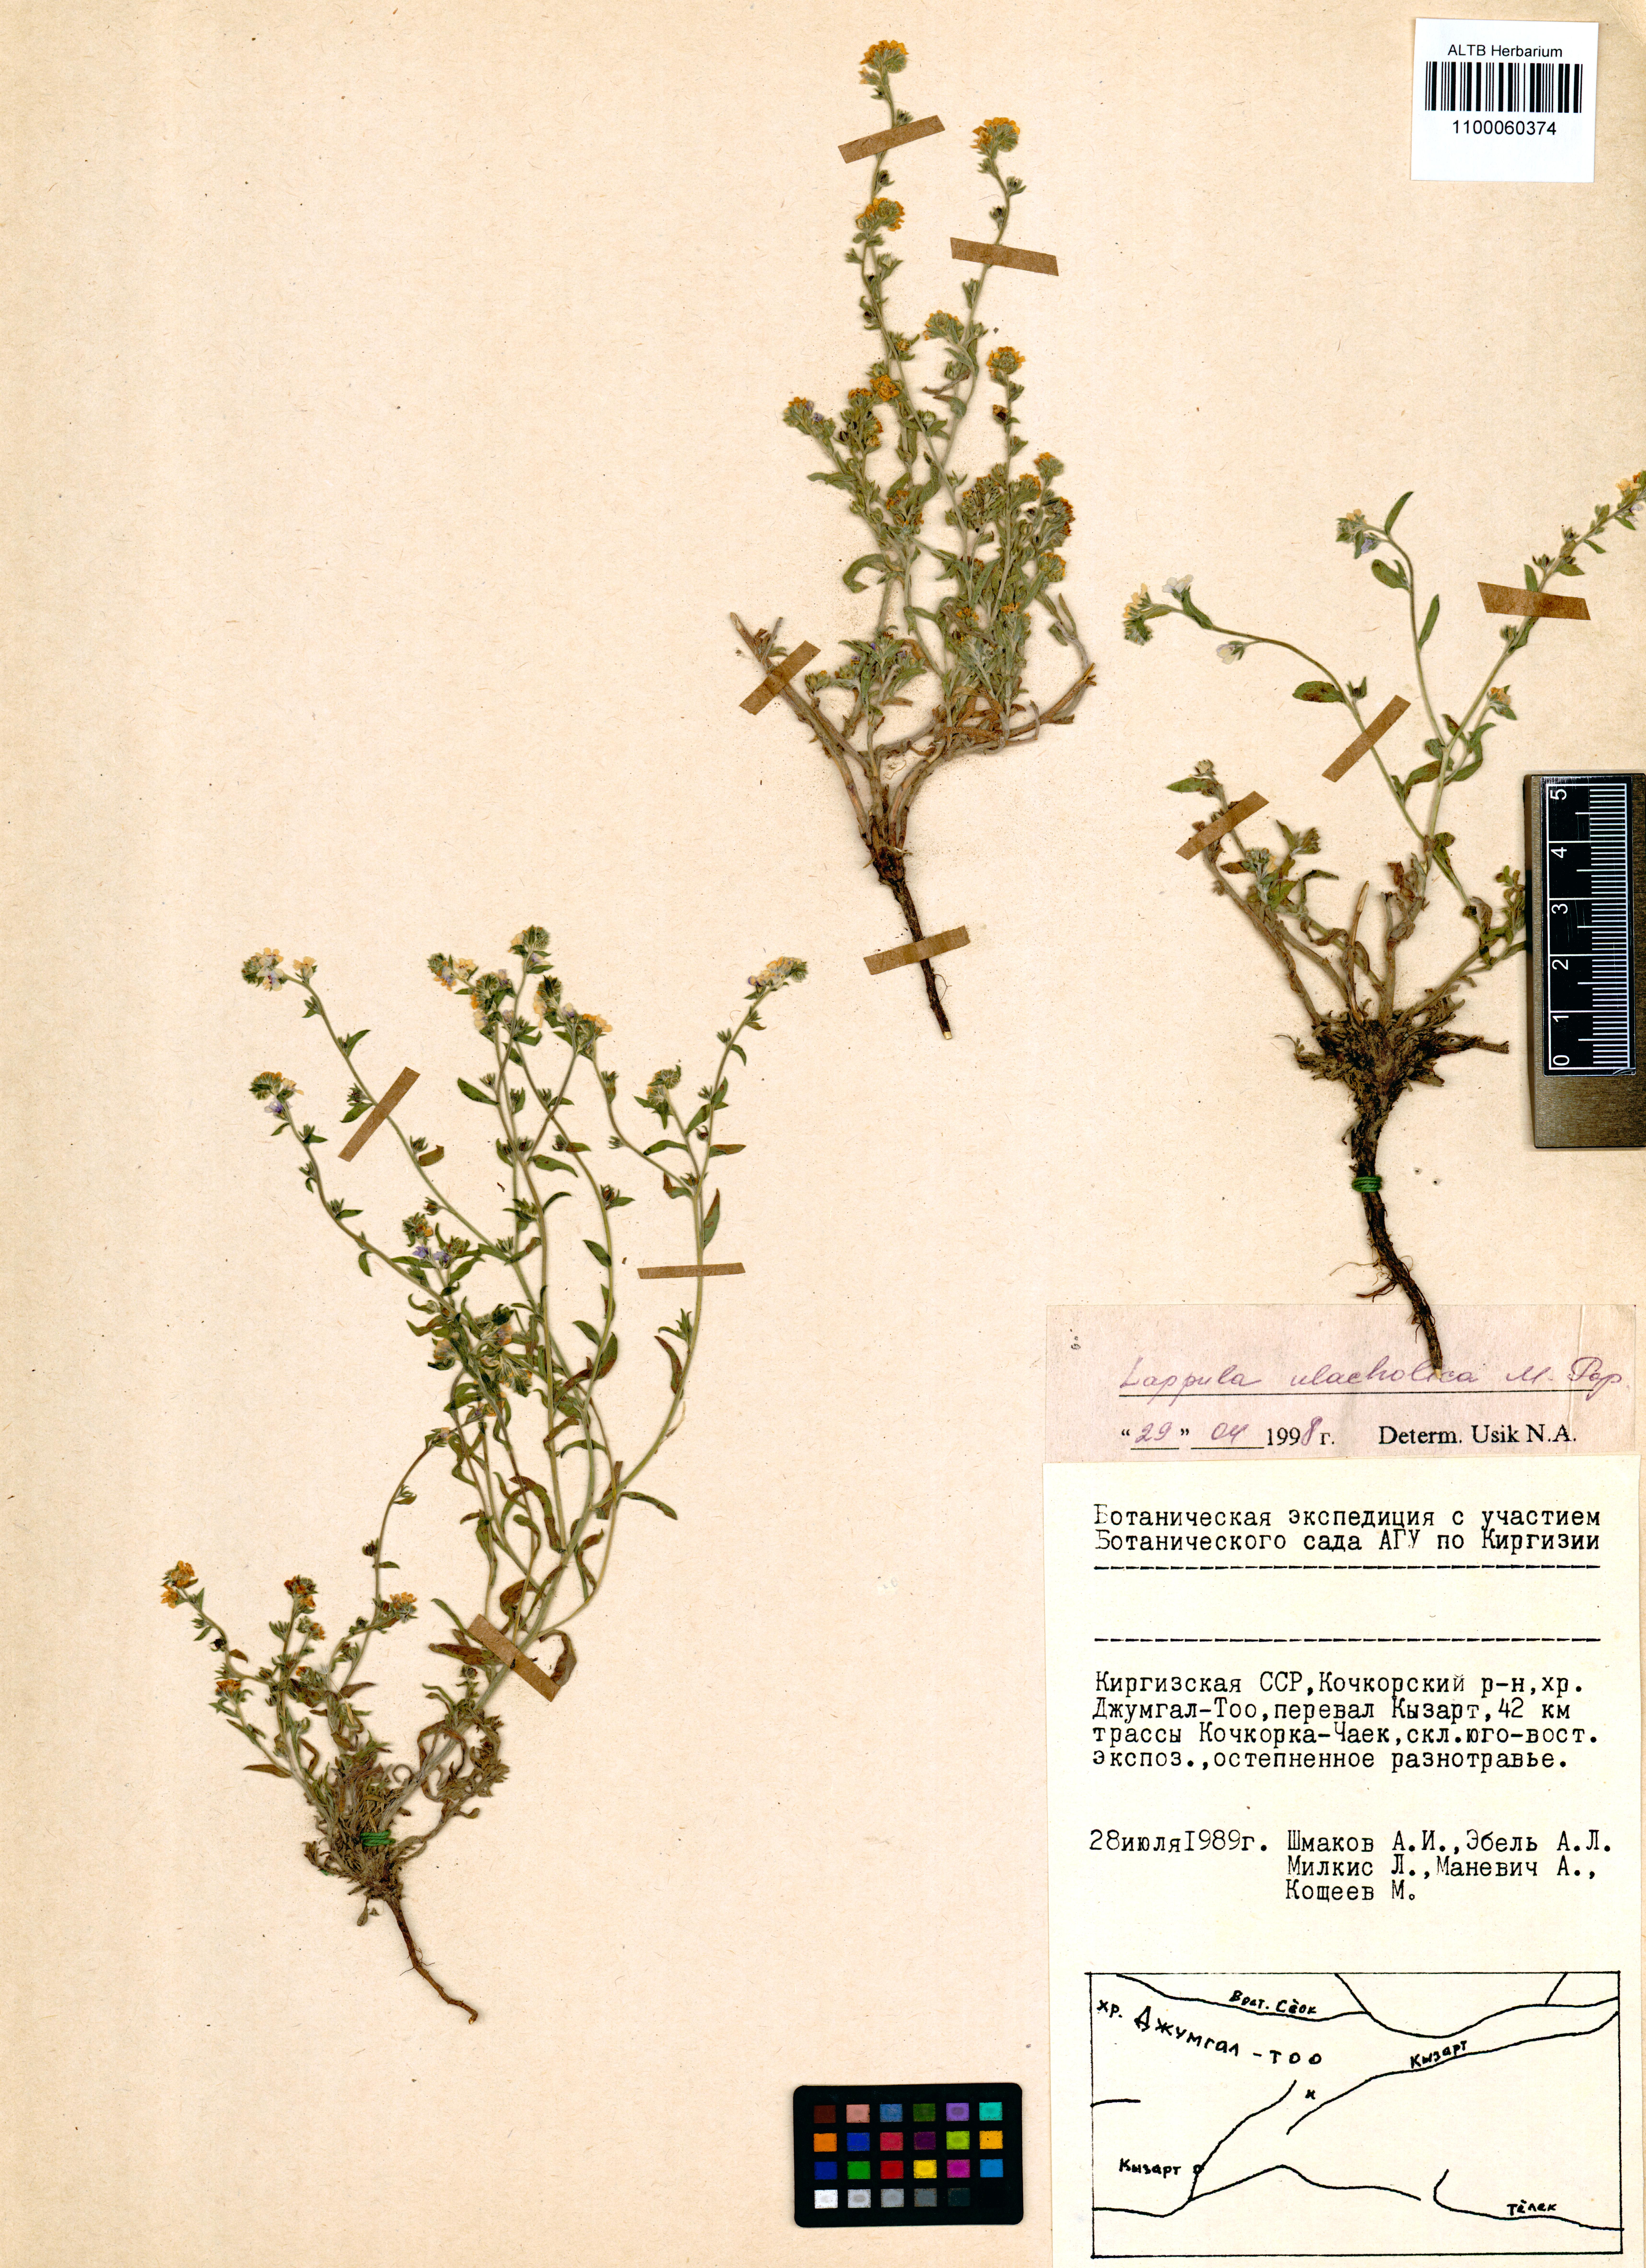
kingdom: Plantae
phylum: Tracheophyta
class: Magnoliopsida
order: Boraginales
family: Boraginaceae
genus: Lepechiniella
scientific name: Lepechiniella ulacholica
